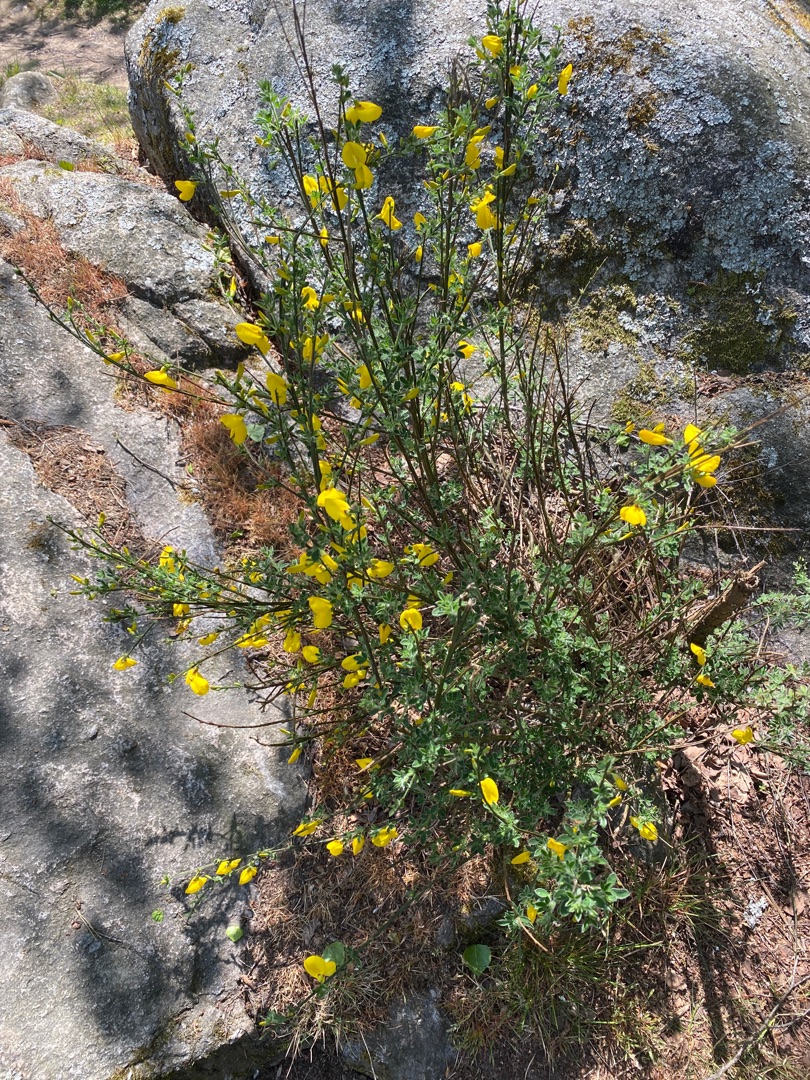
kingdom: Plantae
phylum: Tracheophyta
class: Magnoliopsida
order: Fabales
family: Fabaceae
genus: Cytisus
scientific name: Cytisus scoparius
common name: Almindelig gyvel
